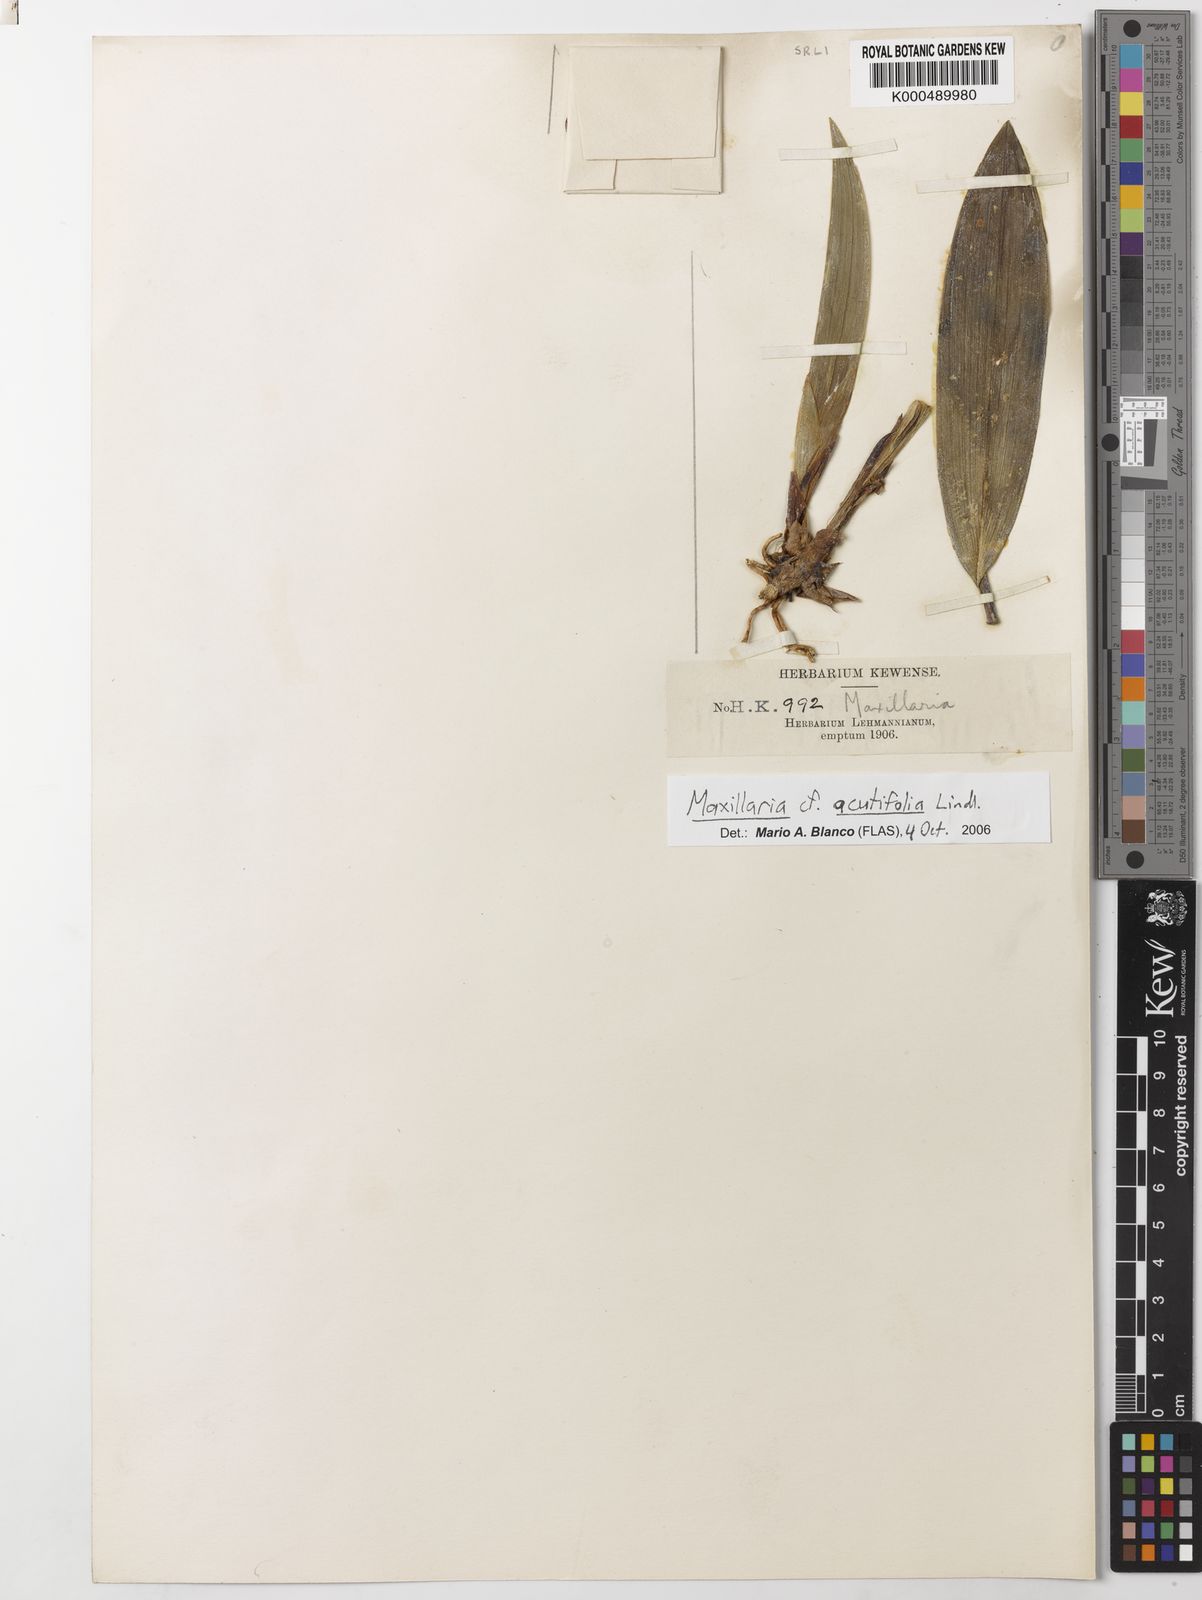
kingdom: Plantae
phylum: Tracheophyta
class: Liliopsida
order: Asparagales
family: Orchidaceae
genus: Maxillaria
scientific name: Maxillaria acutifolia
